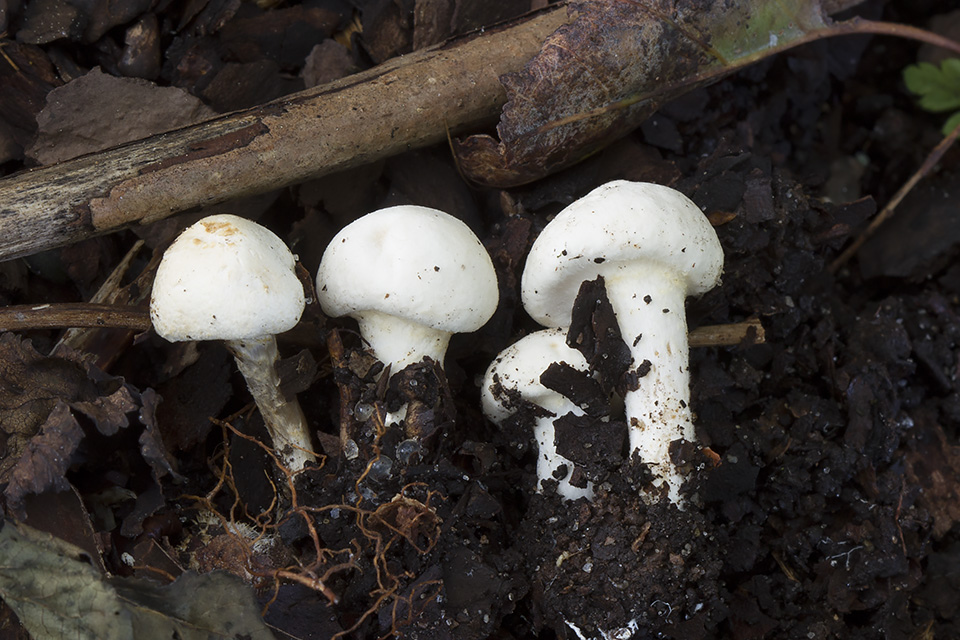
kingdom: Fungi
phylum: Basidiomycota
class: Agaricomycetes
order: Agaricales
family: Agaricaceae
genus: Lepiota
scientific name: Lepiota subalba
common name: hvidlig parasolhat
